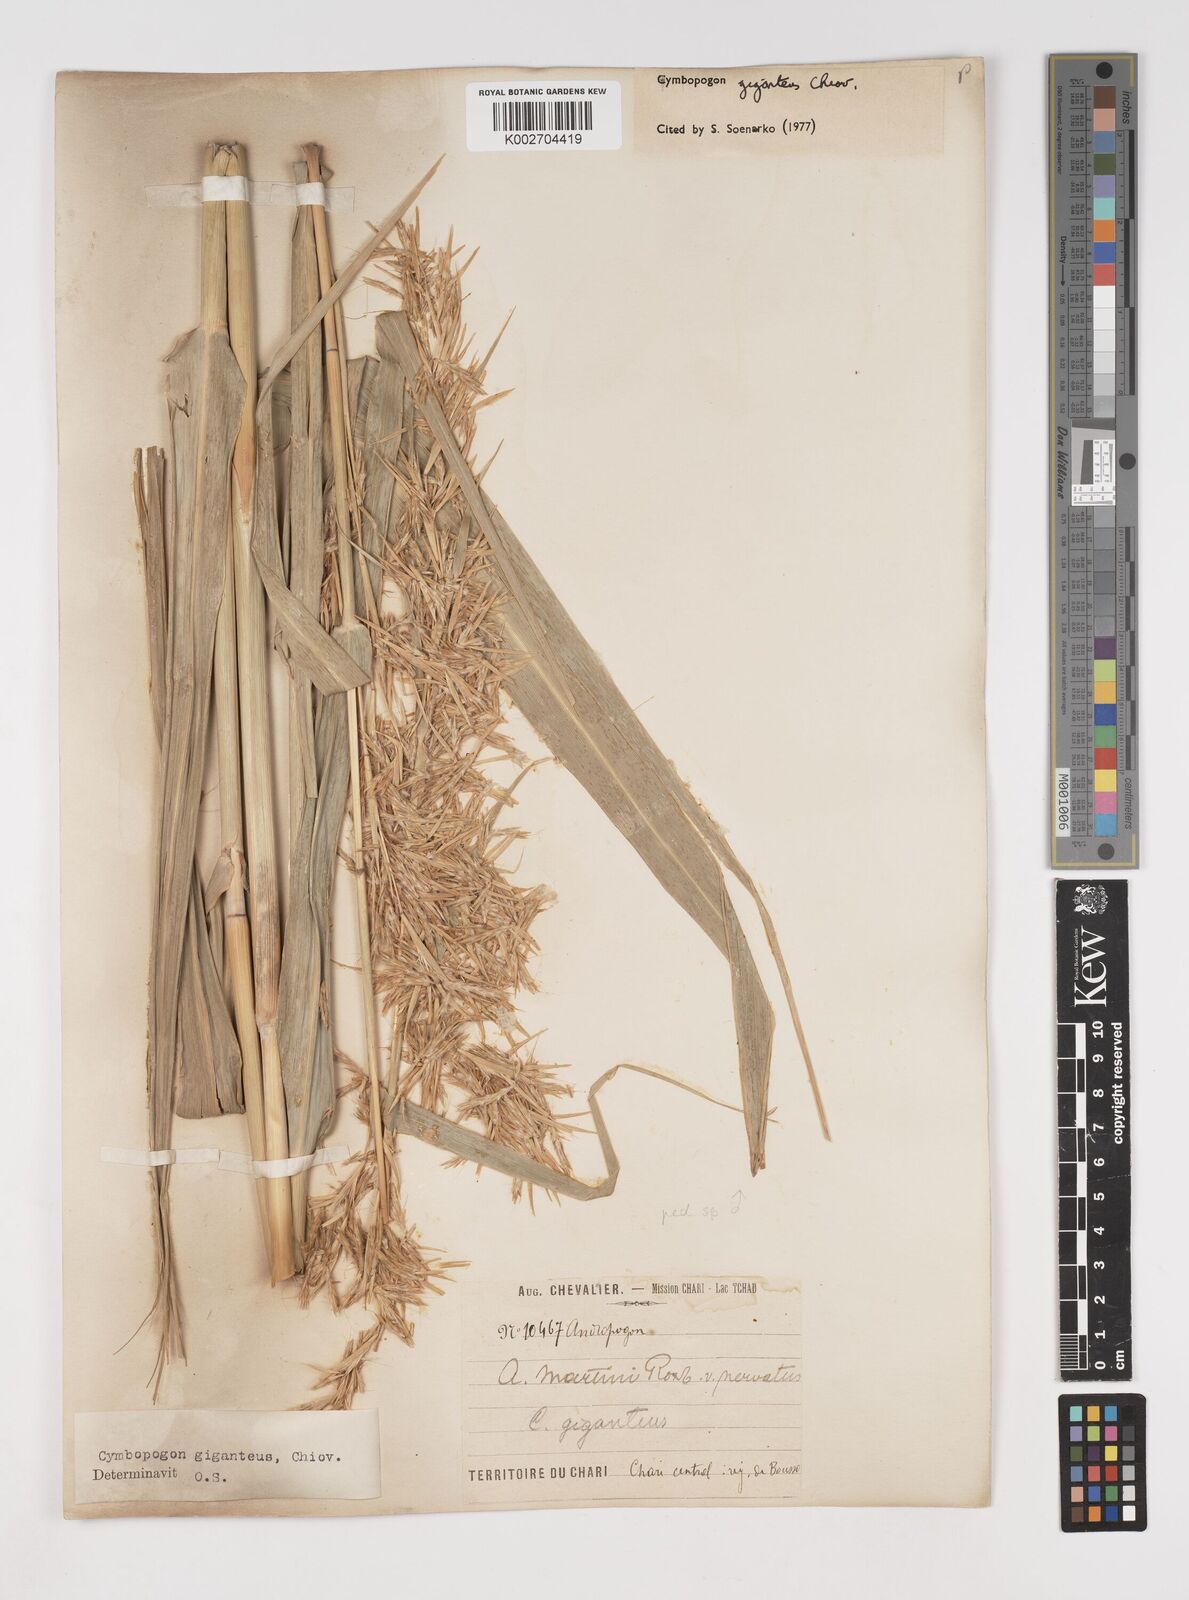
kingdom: Plantae
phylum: Tracheophyta
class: Liliopsida
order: Poales
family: Poaceae
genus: Cymbopogon
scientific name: Cymbopogon giganteus
